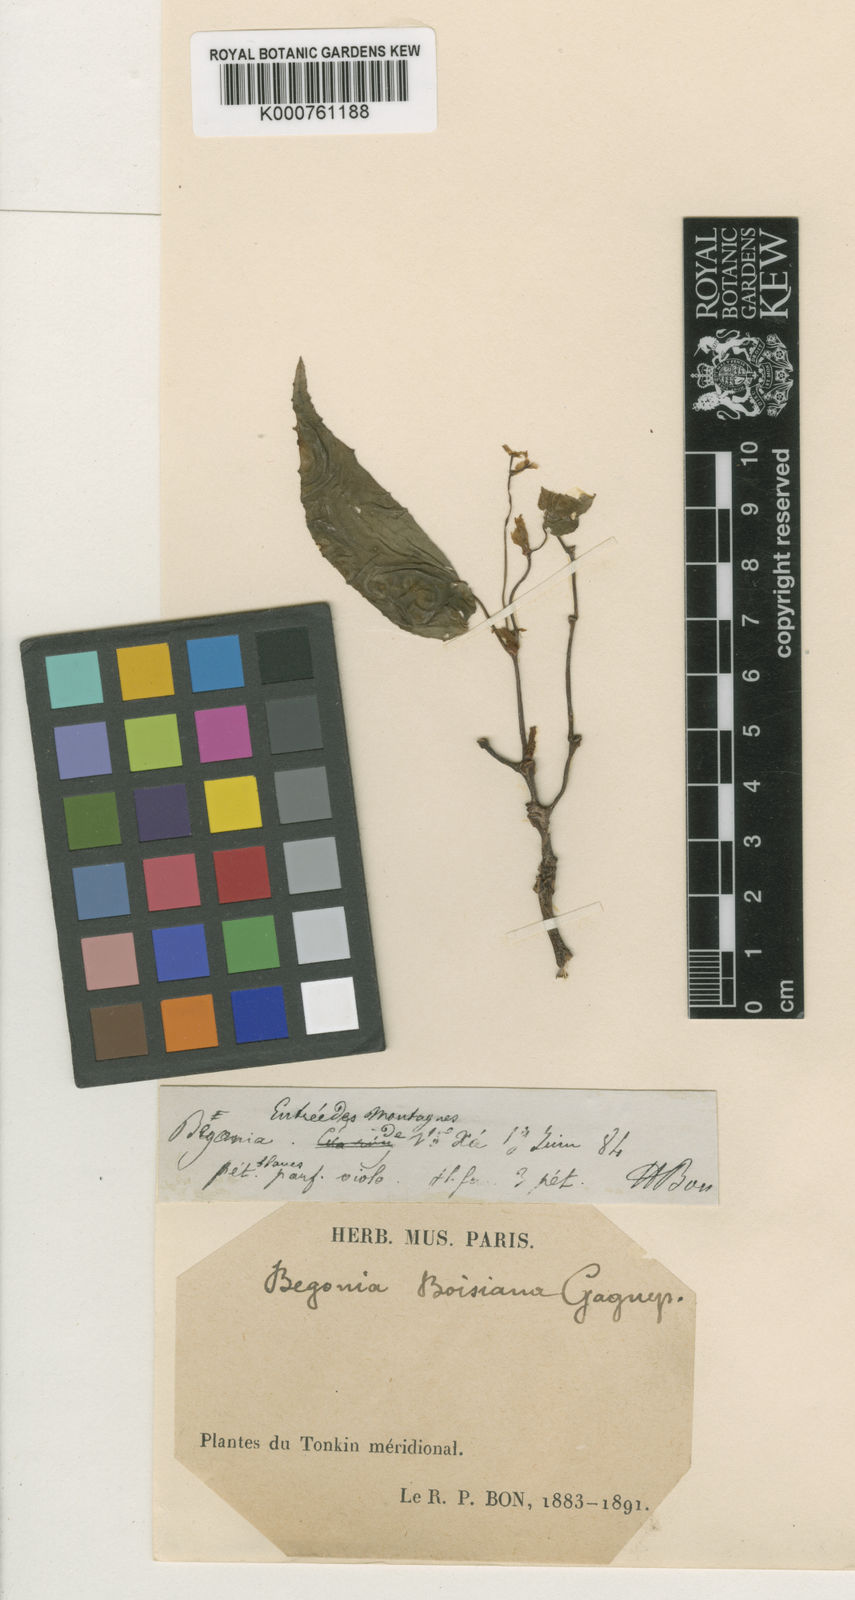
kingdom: Plantae
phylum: Tracheophyta
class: Magnoliopsida
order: Cucurbitales
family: Begoniaceae
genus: Begonia
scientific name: Begonia boisiana
